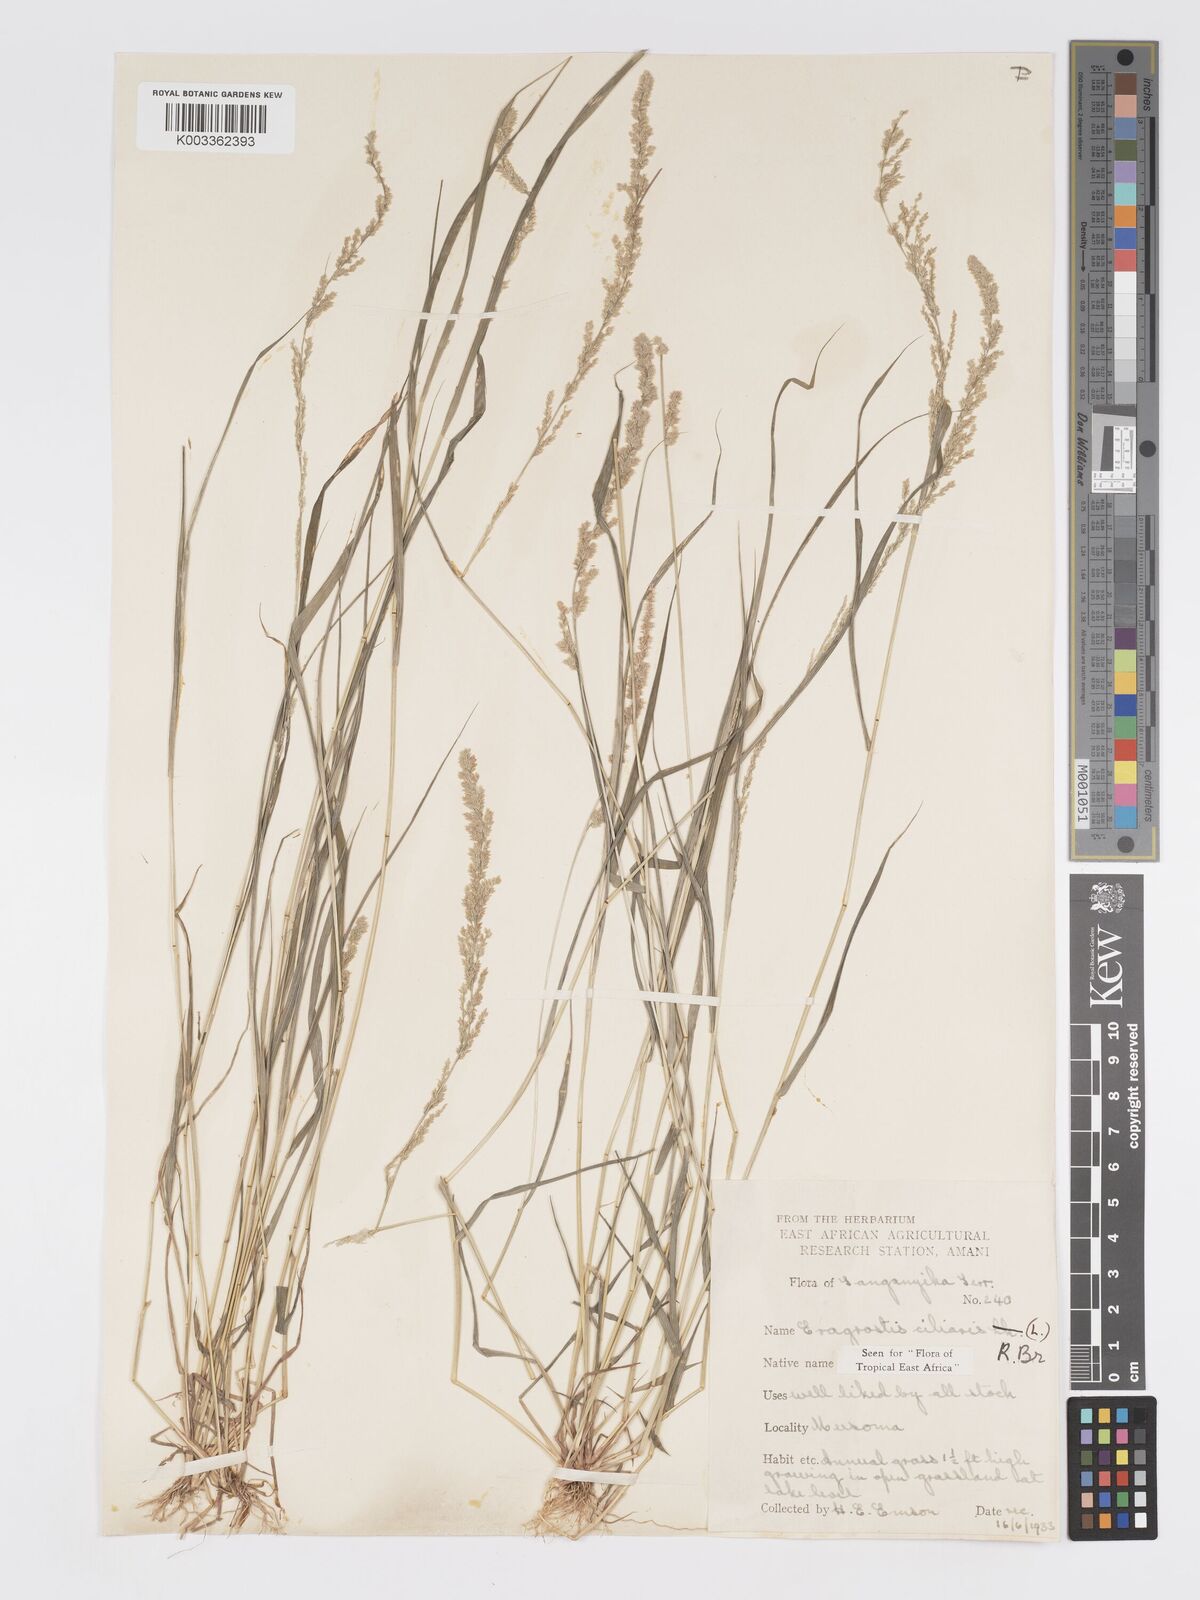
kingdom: Plantae
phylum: Tracheophyta
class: Liliopsida
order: Poales
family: Poaceae
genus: Eragrostis
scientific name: Eragrostis ciliaris
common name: Gophertail lovegrass
